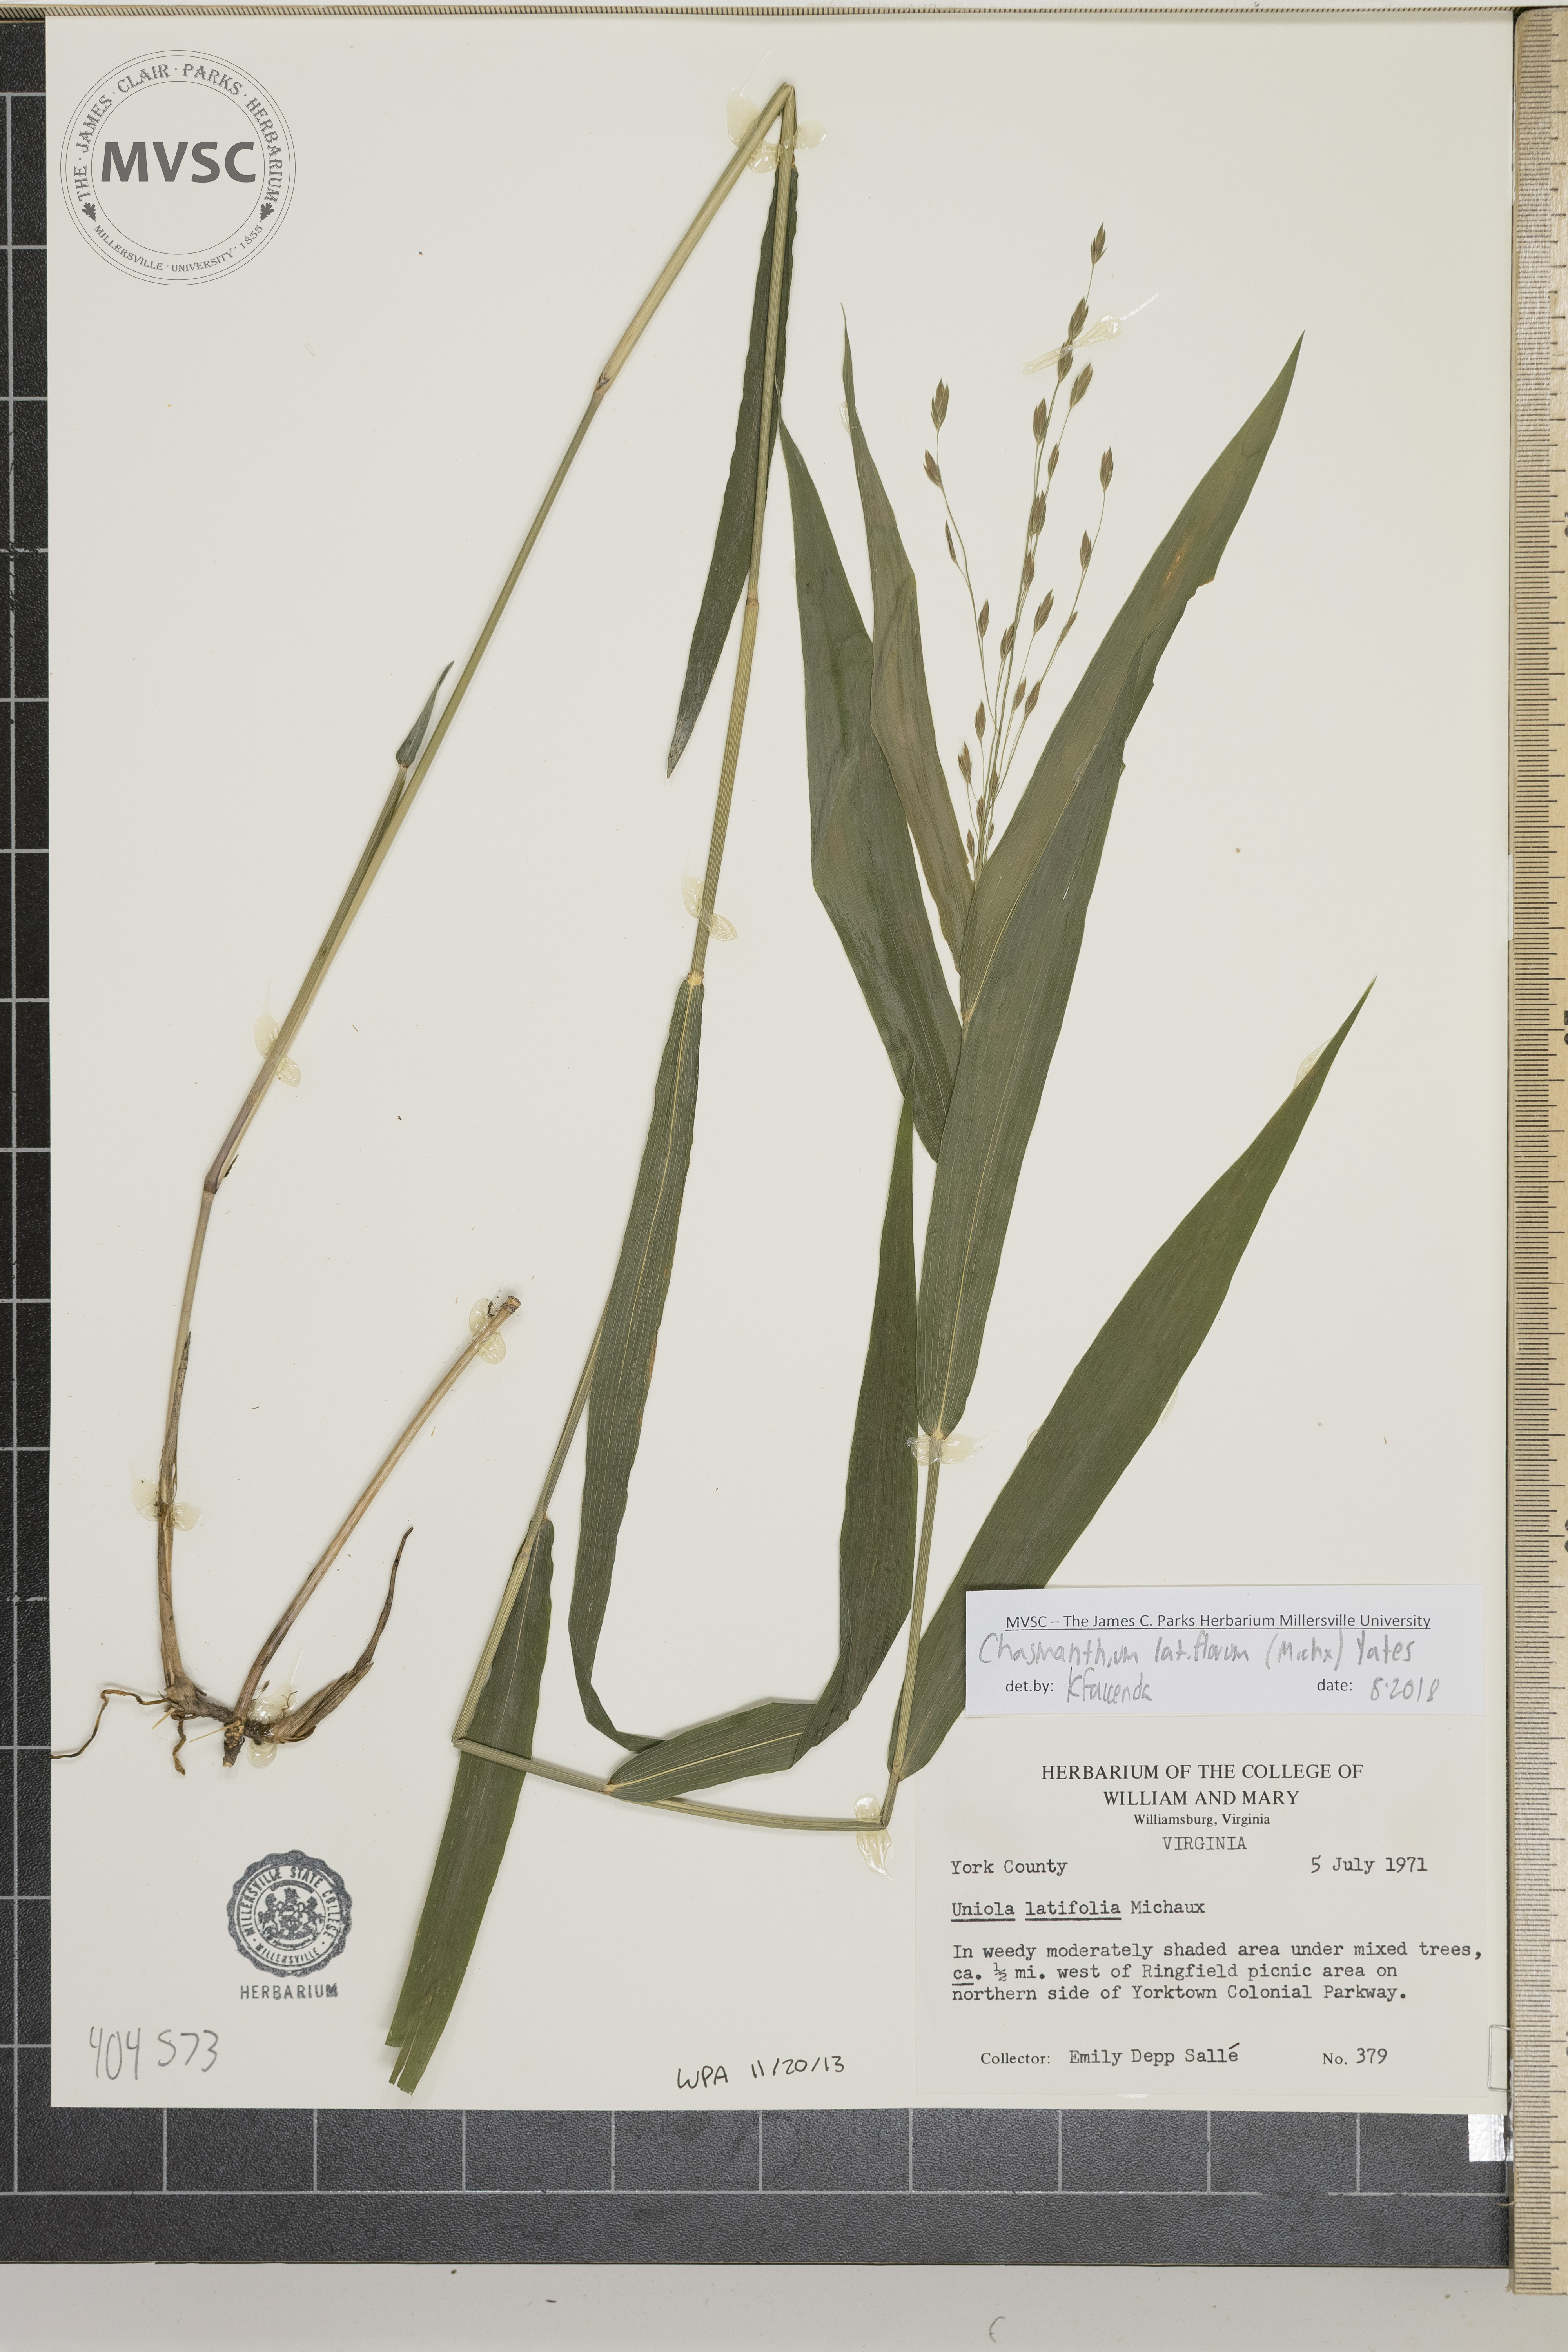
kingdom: Plantae
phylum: Tracheophyta
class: Liliopsida
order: Poales
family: Poaceae
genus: Chasmanthium
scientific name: Chasmanthium latifolium
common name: Broad-leaved chasmanthium
